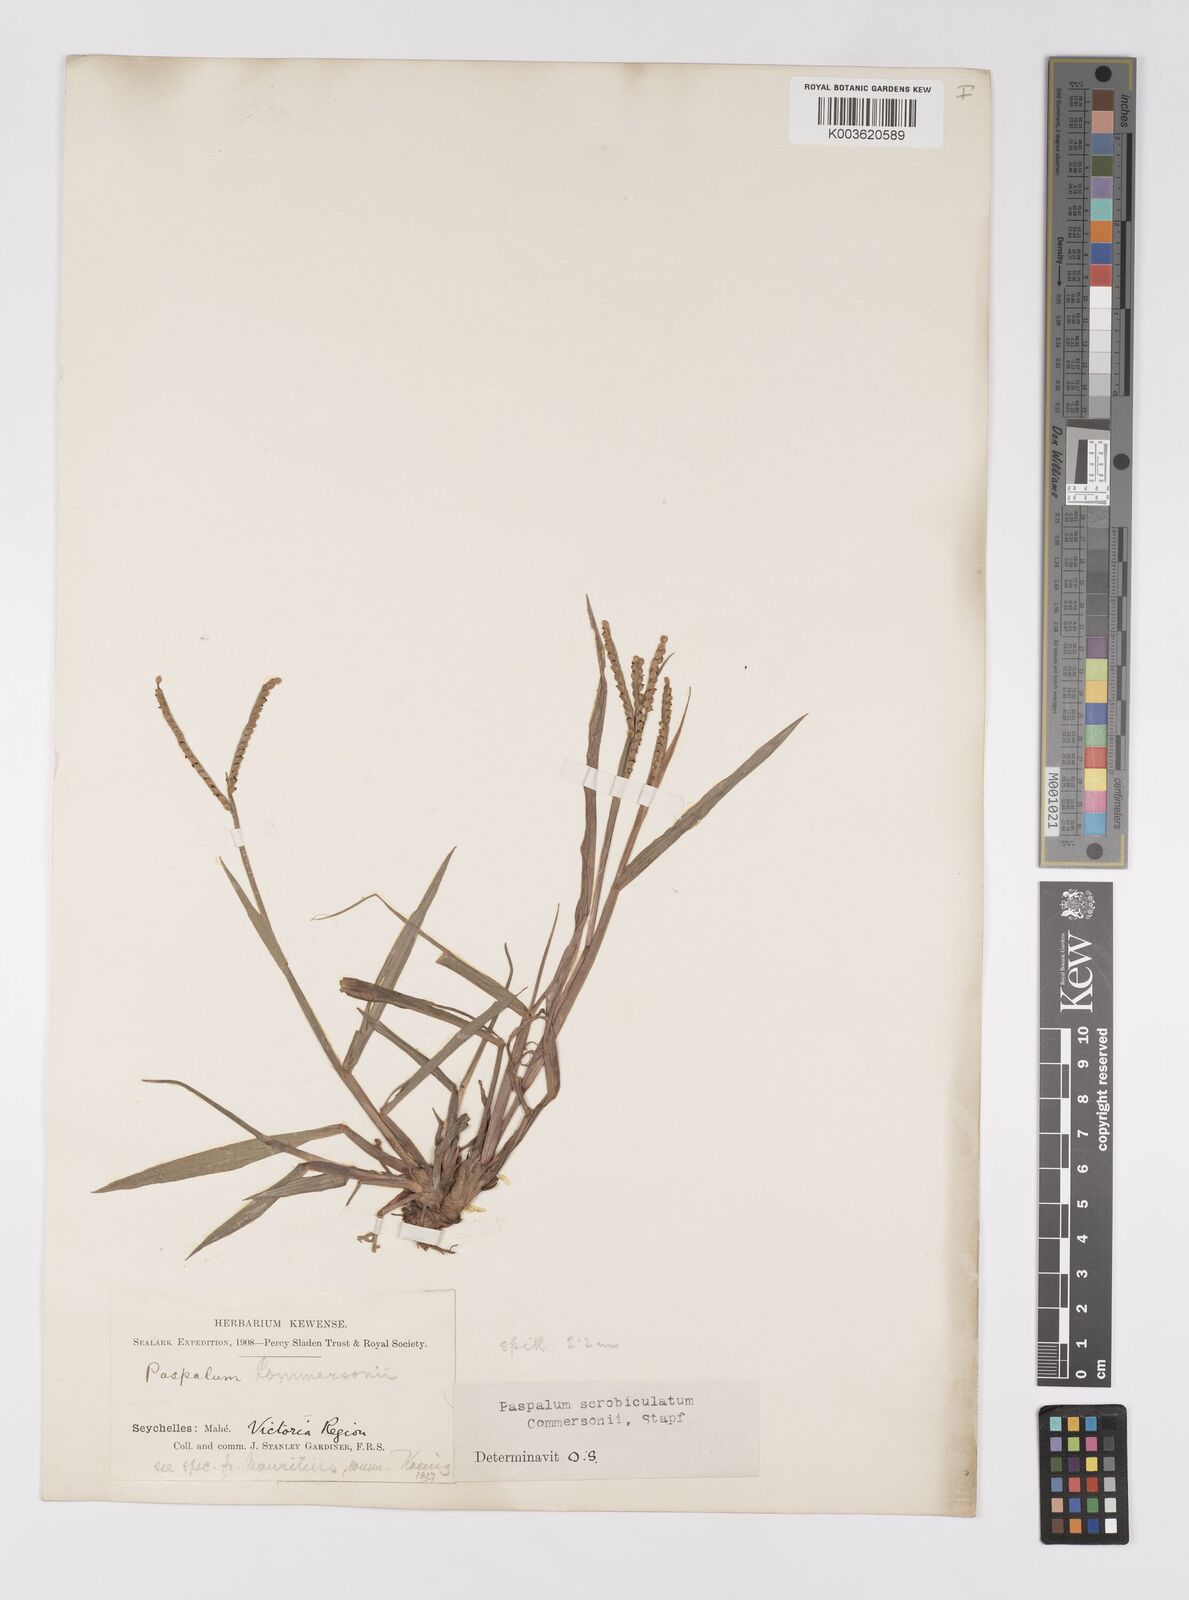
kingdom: Plantae
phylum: Tracheophyta
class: Liliopsida
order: Poales
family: Poaceae
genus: Paspalum
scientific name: Paspalum scrobiculatum
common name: Kodo millet
